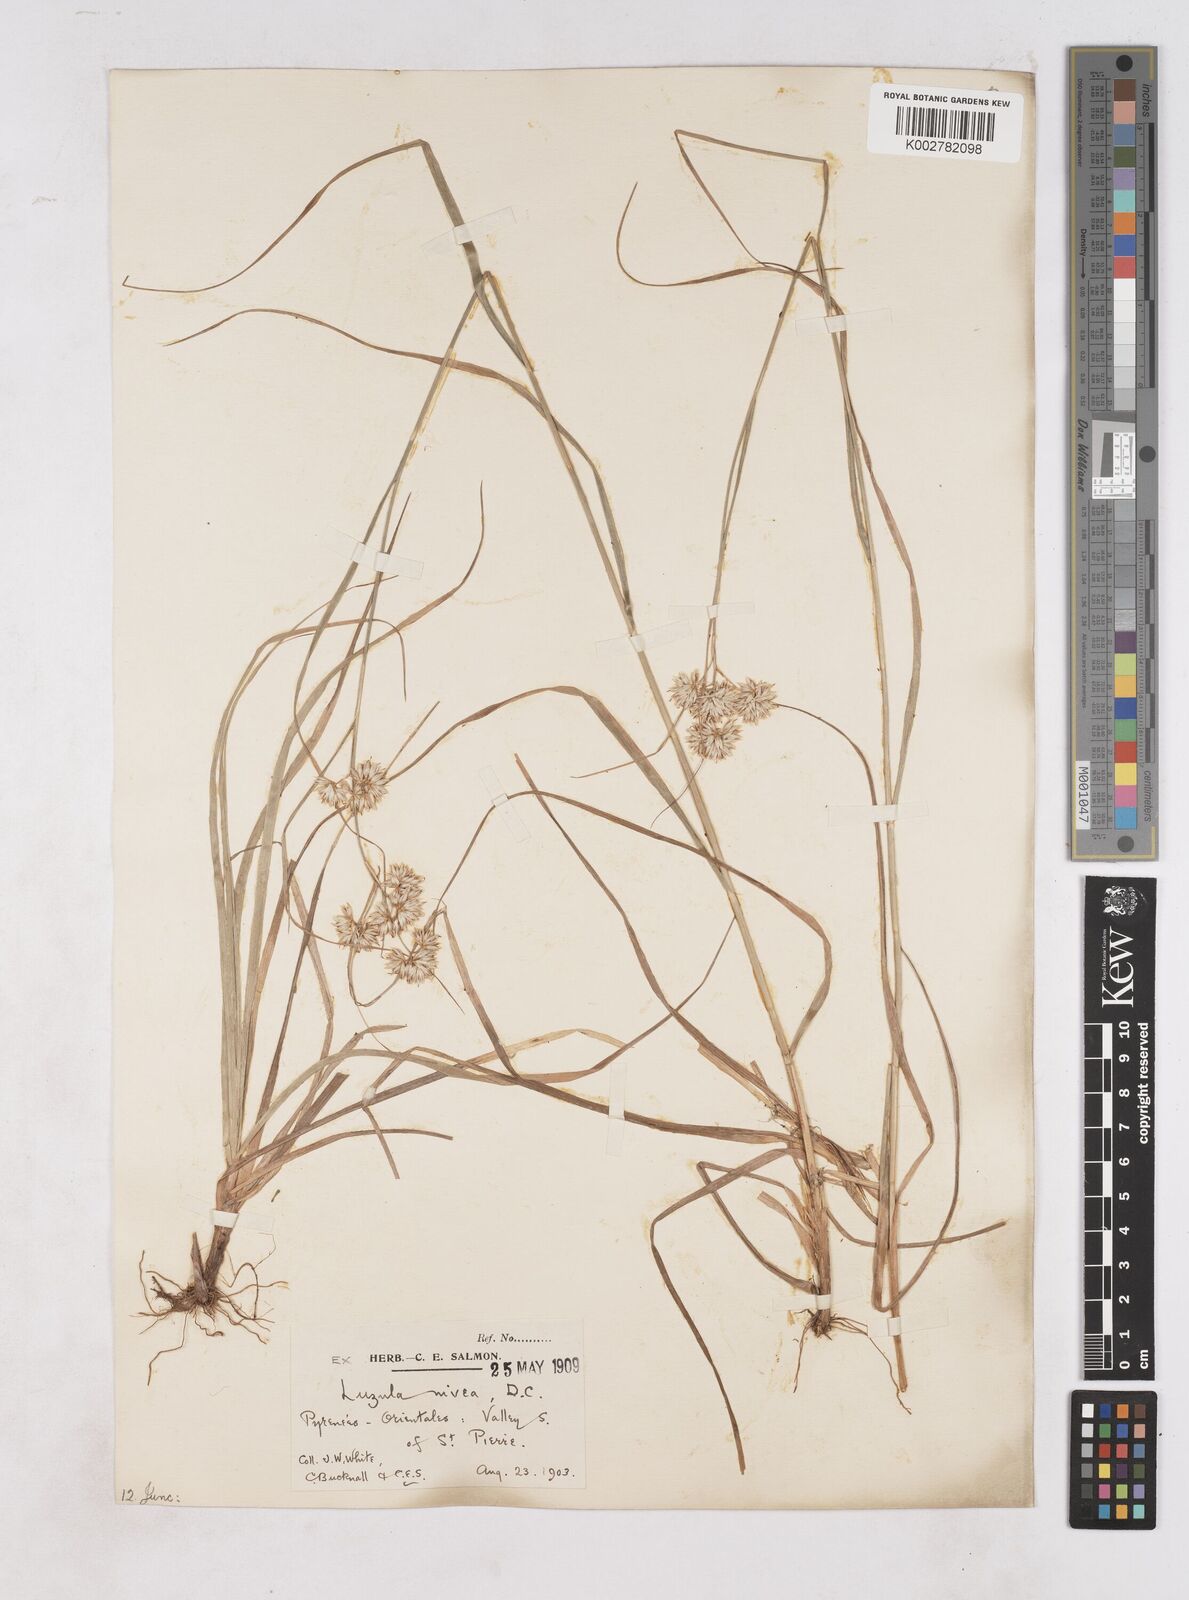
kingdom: Plantae
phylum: Tracheophyta
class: Liliopsida
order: Poales
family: Juncaceae
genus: Luzula
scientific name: Luzula nivea
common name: Snow-white wood-rush
